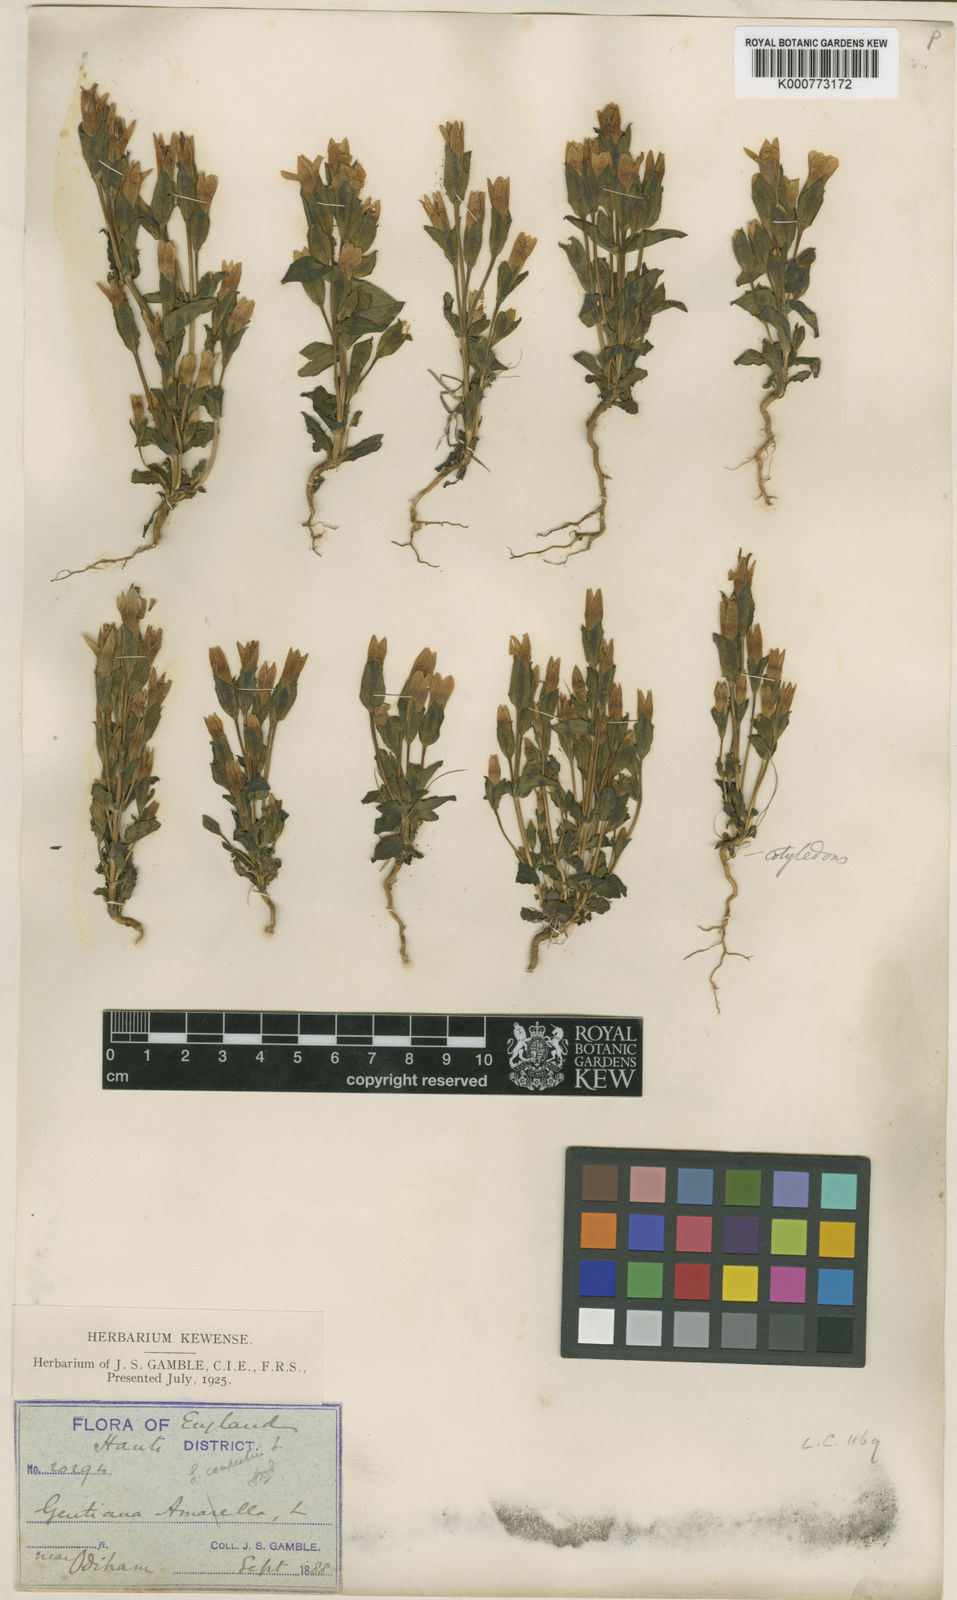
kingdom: Plantae
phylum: Tracheophyta
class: Magnoliopsida
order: Gentianales
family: Gentianaceae
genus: Gentianella
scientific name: Gentianella
